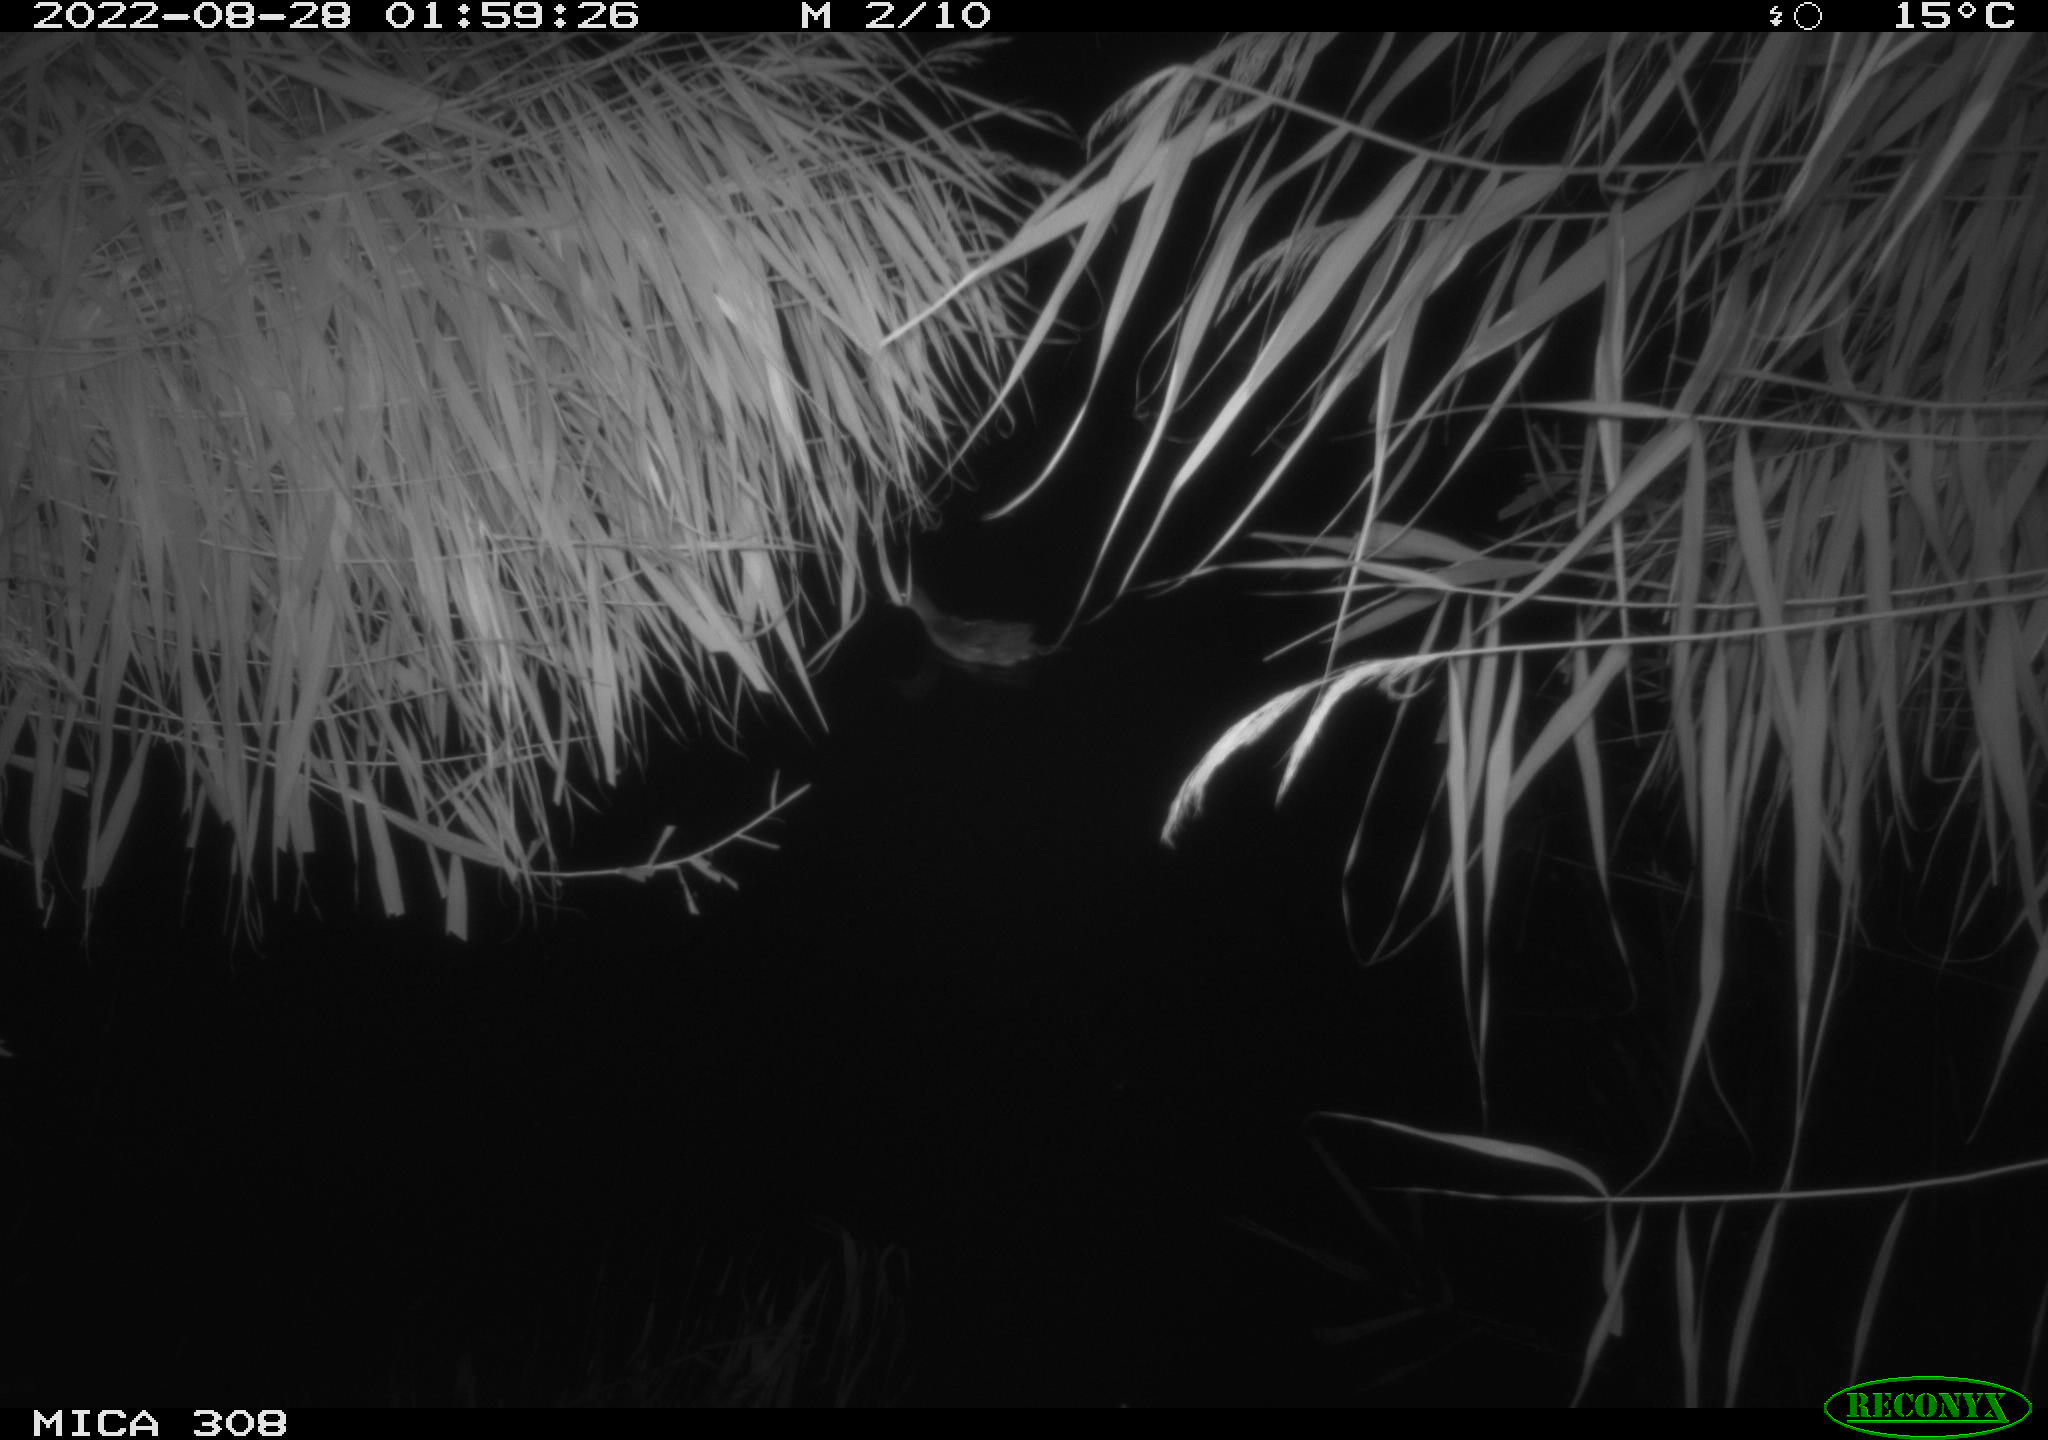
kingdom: Animalia
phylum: Chordata
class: Aves
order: Gruiformes
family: Rallidae
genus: Gallinula
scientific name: Gallinula chloropus
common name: Common moorhen
